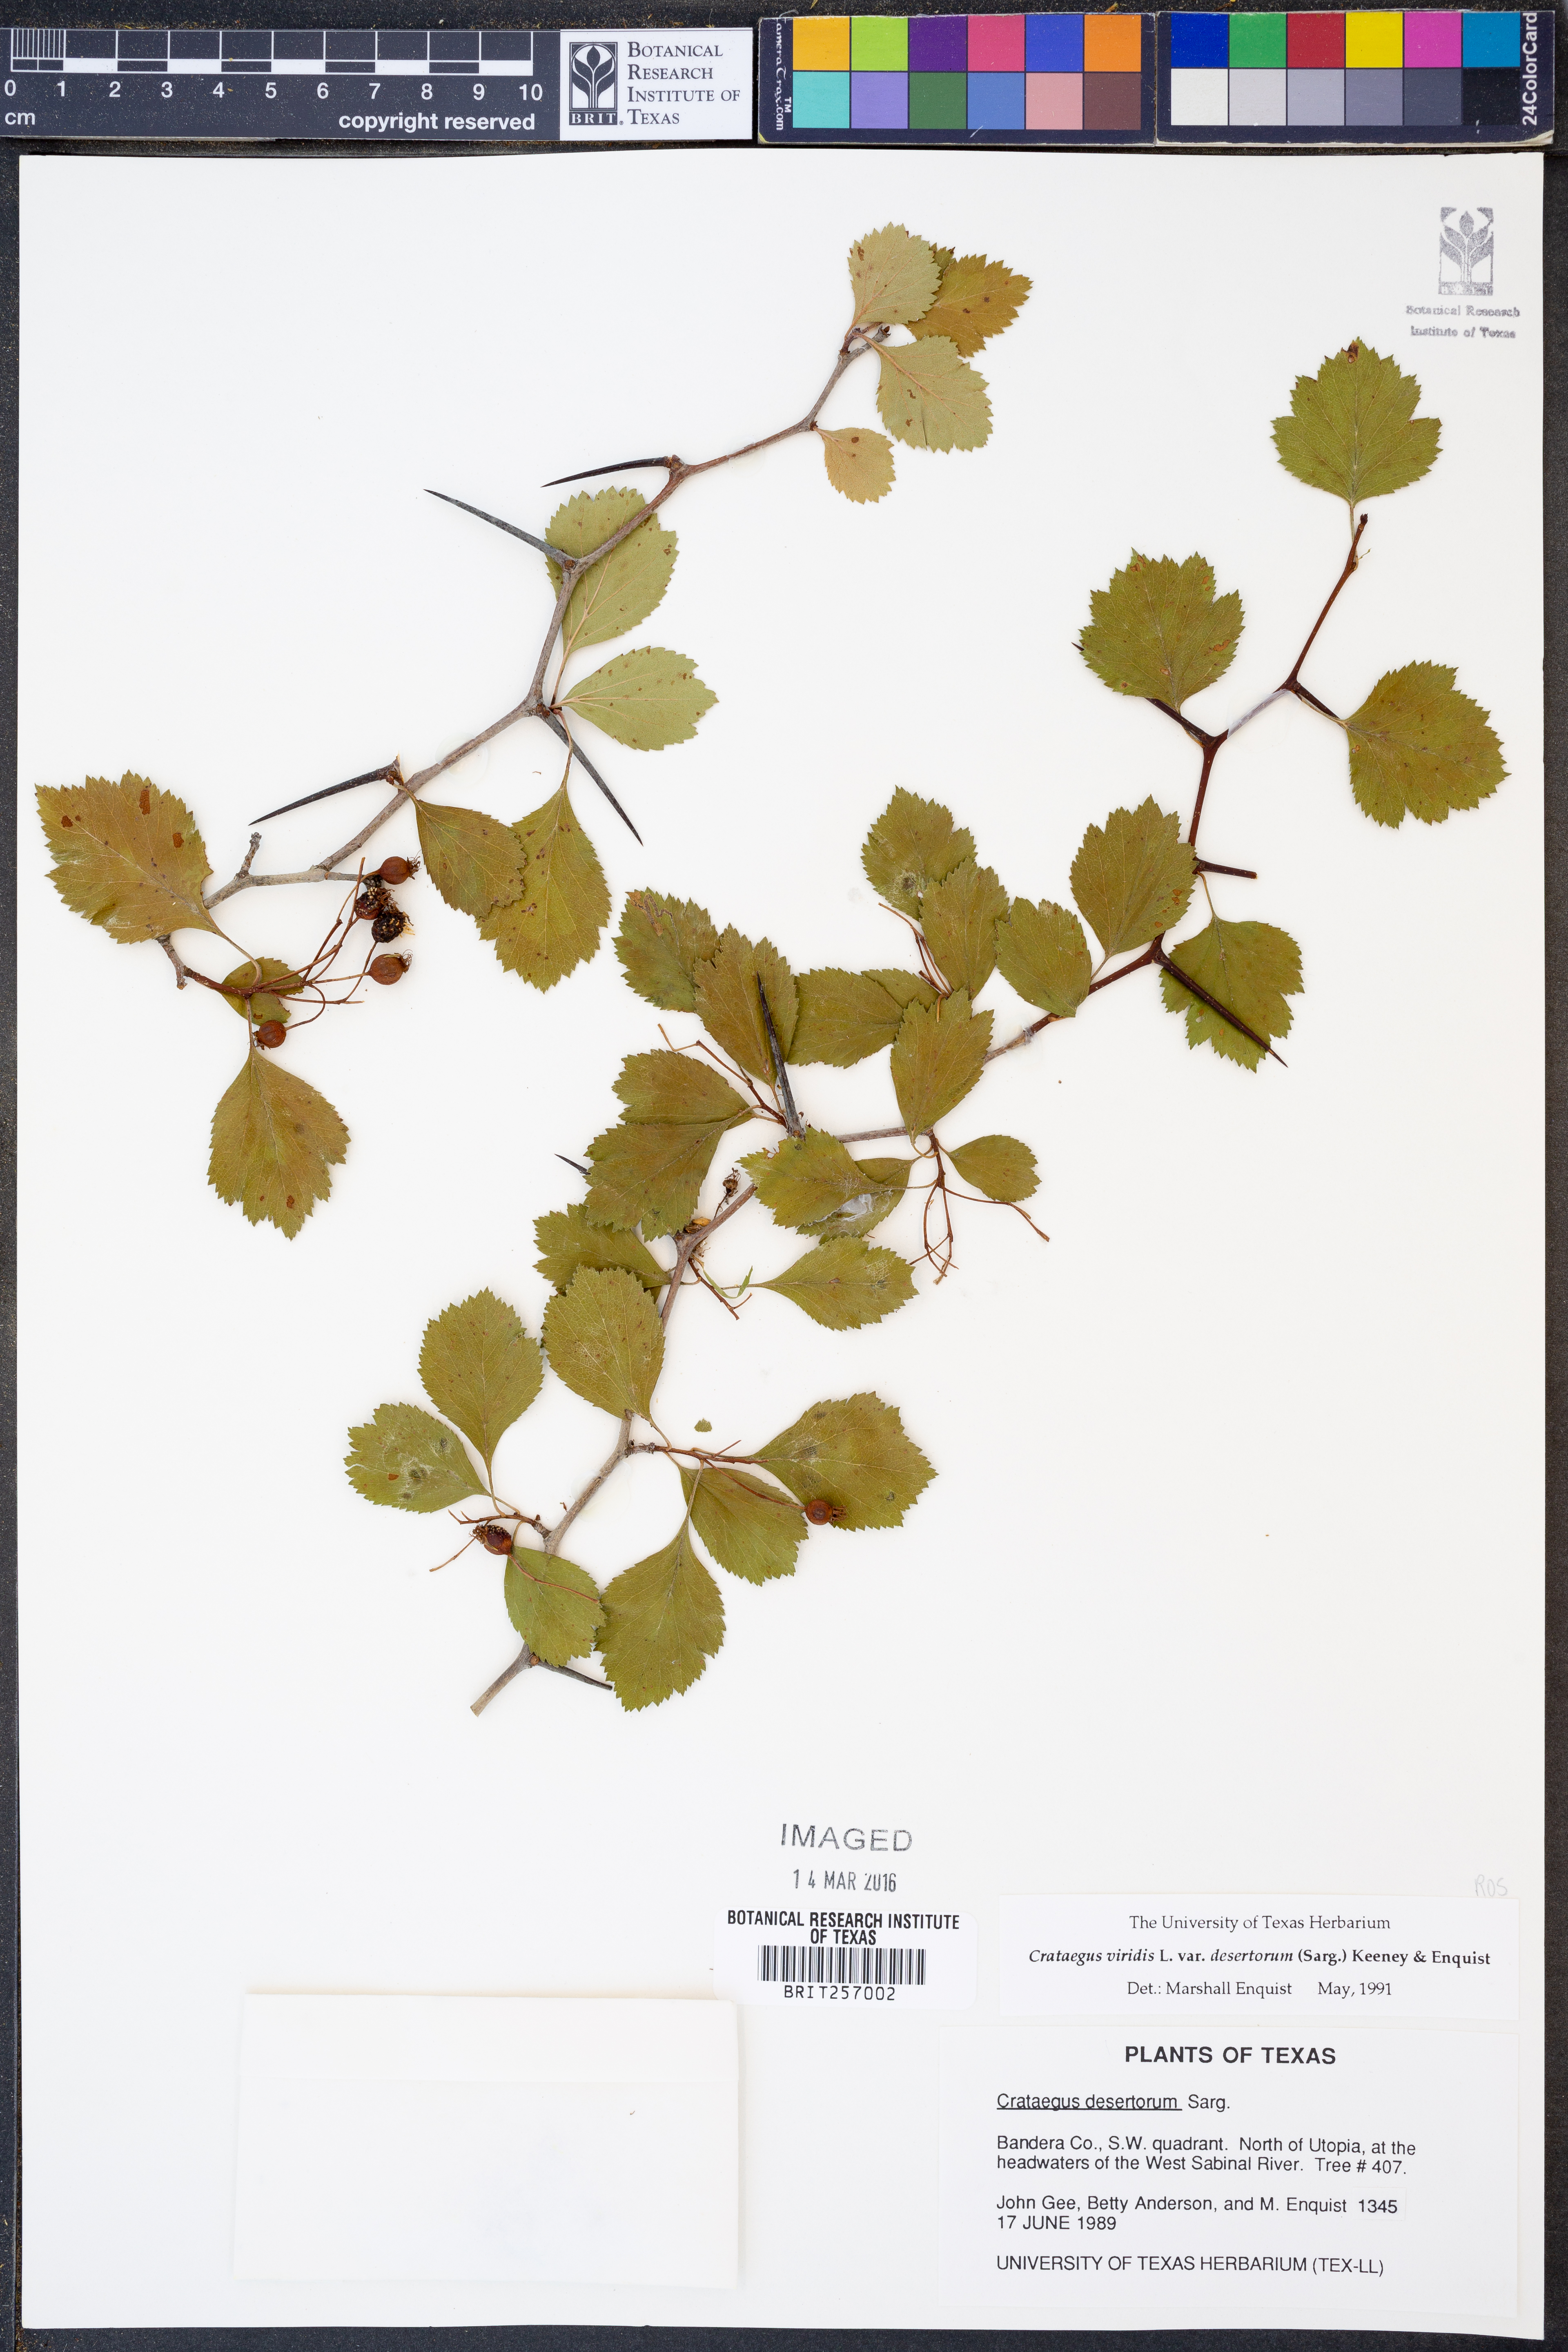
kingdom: Plantae
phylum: Tracheophyta
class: Magnoliopsida
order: Rosales
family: Rosaceae
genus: Crataegus
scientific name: Crataegus viridis
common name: Southernthorn
